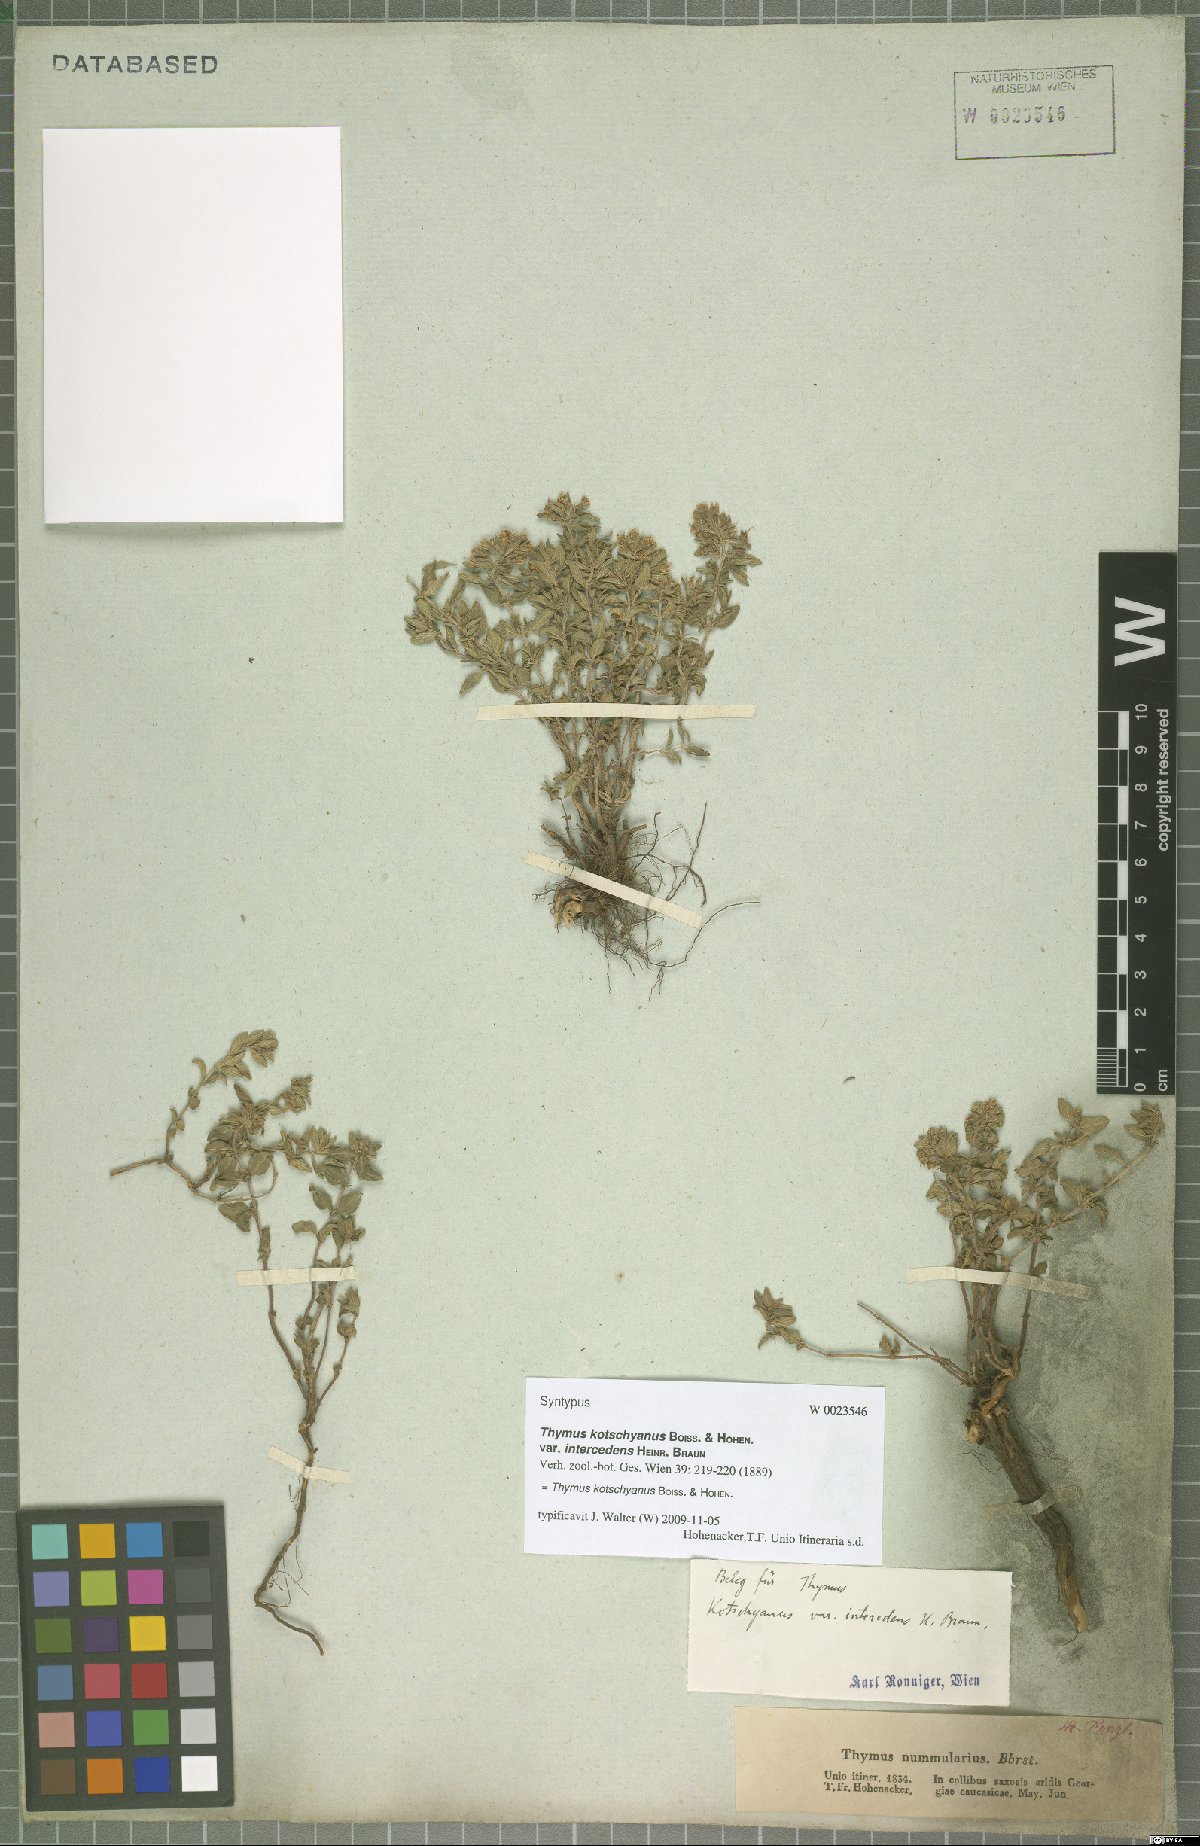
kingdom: Plantae
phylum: Tracheophyta
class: Magnoliopsida
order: Lamiales
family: Lamiaceae
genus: Thymus
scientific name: Thymus kotschyanus
